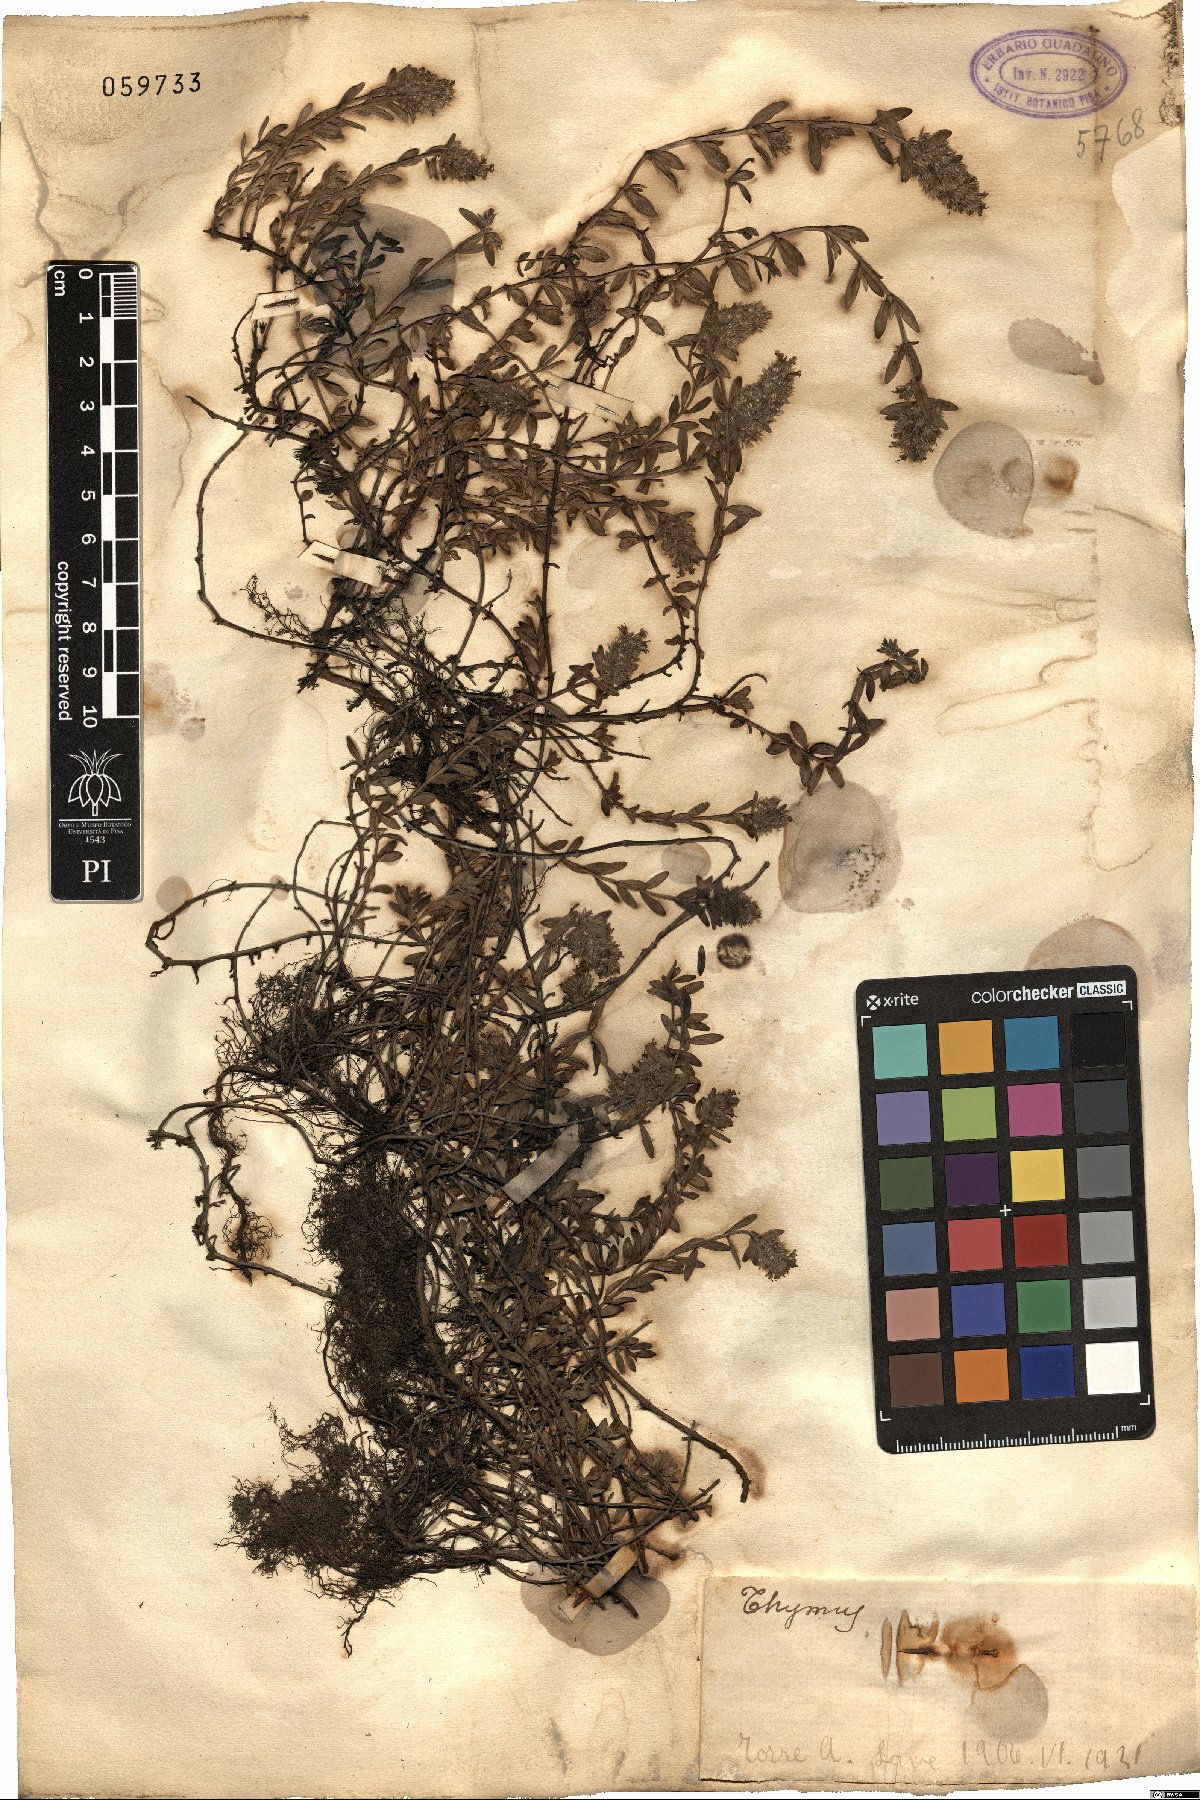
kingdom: Plantae
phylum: Tracheophyta
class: Magnoliopsida
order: Lamiales
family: Lamiaceae
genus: Thymus
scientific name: Thymus
